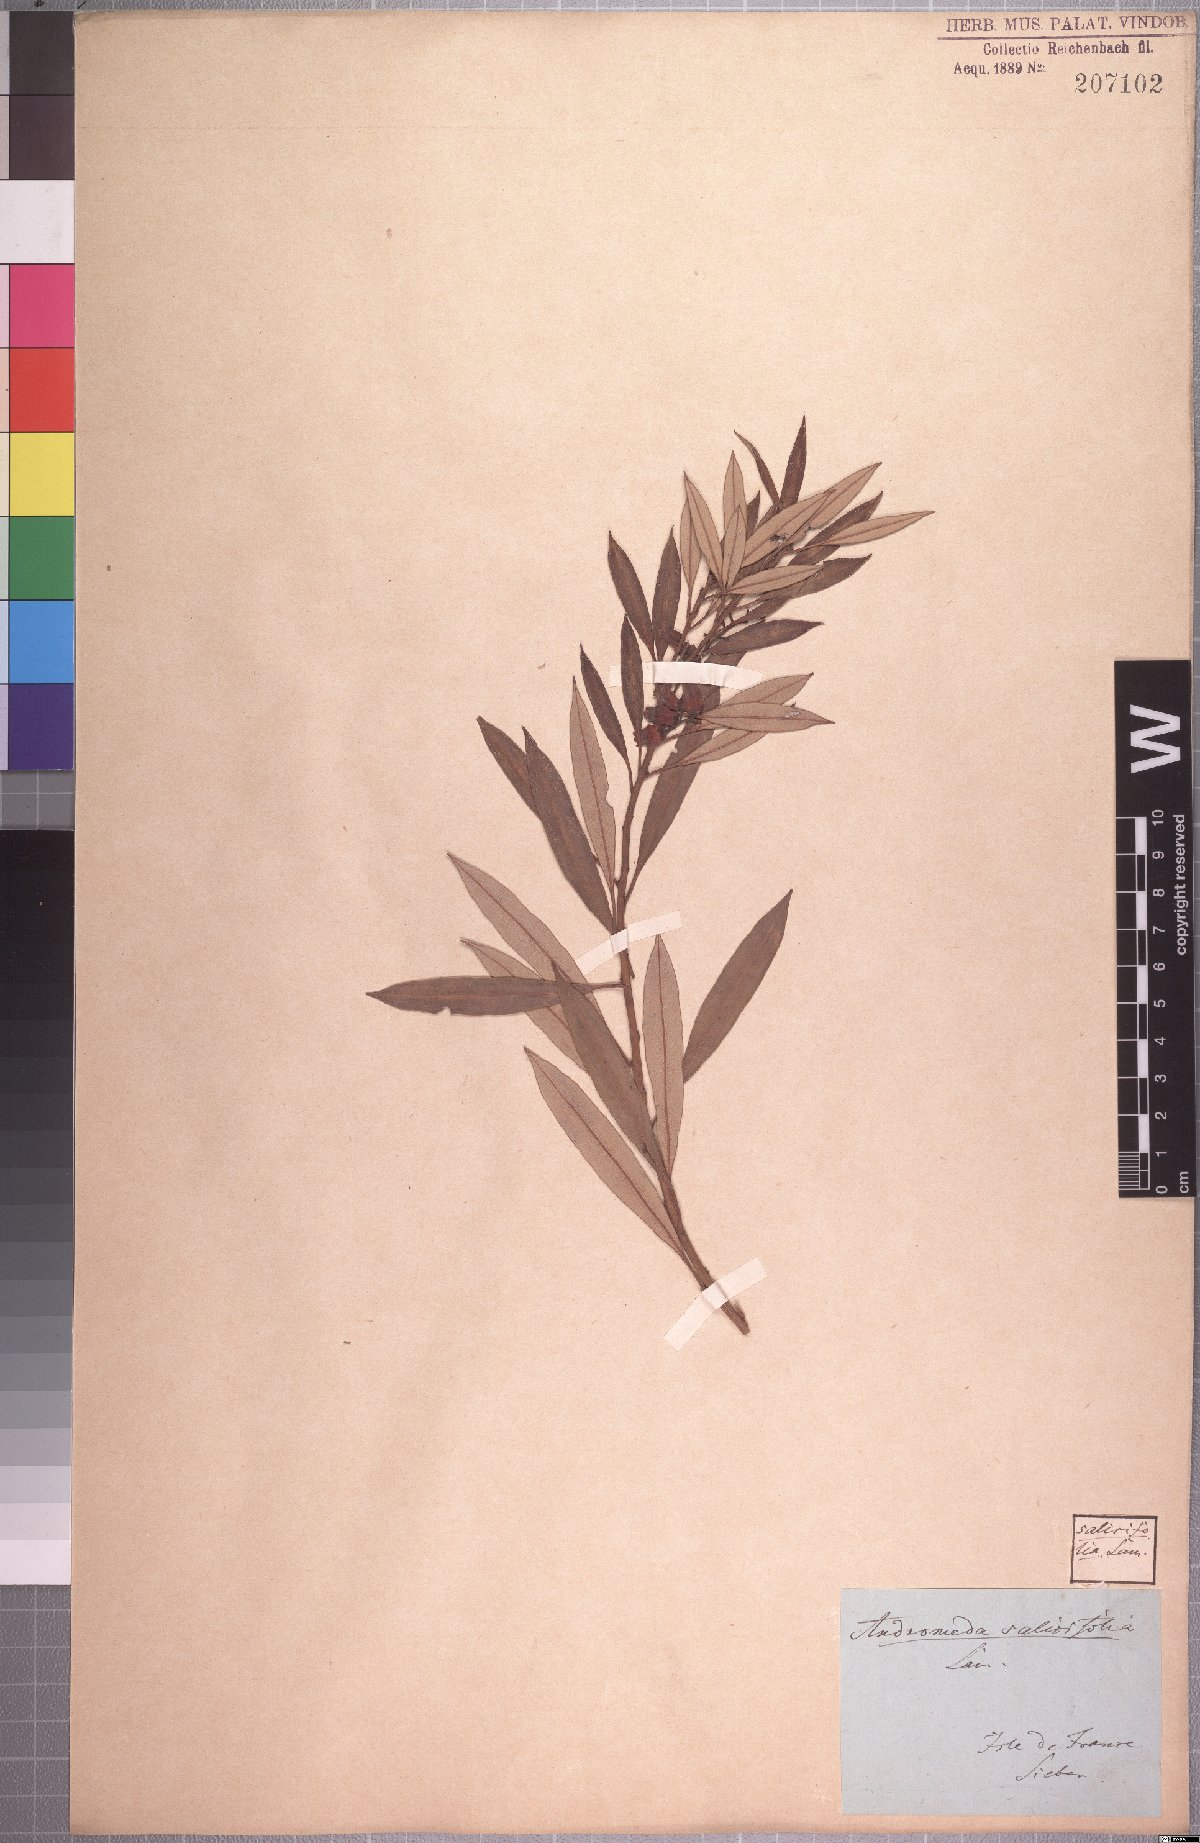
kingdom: Plantae
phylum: Tracheophyta
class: Magnoliopsida
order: Ericales
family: Ericaceae
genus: Agarista
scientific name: Agarista salicifolia
